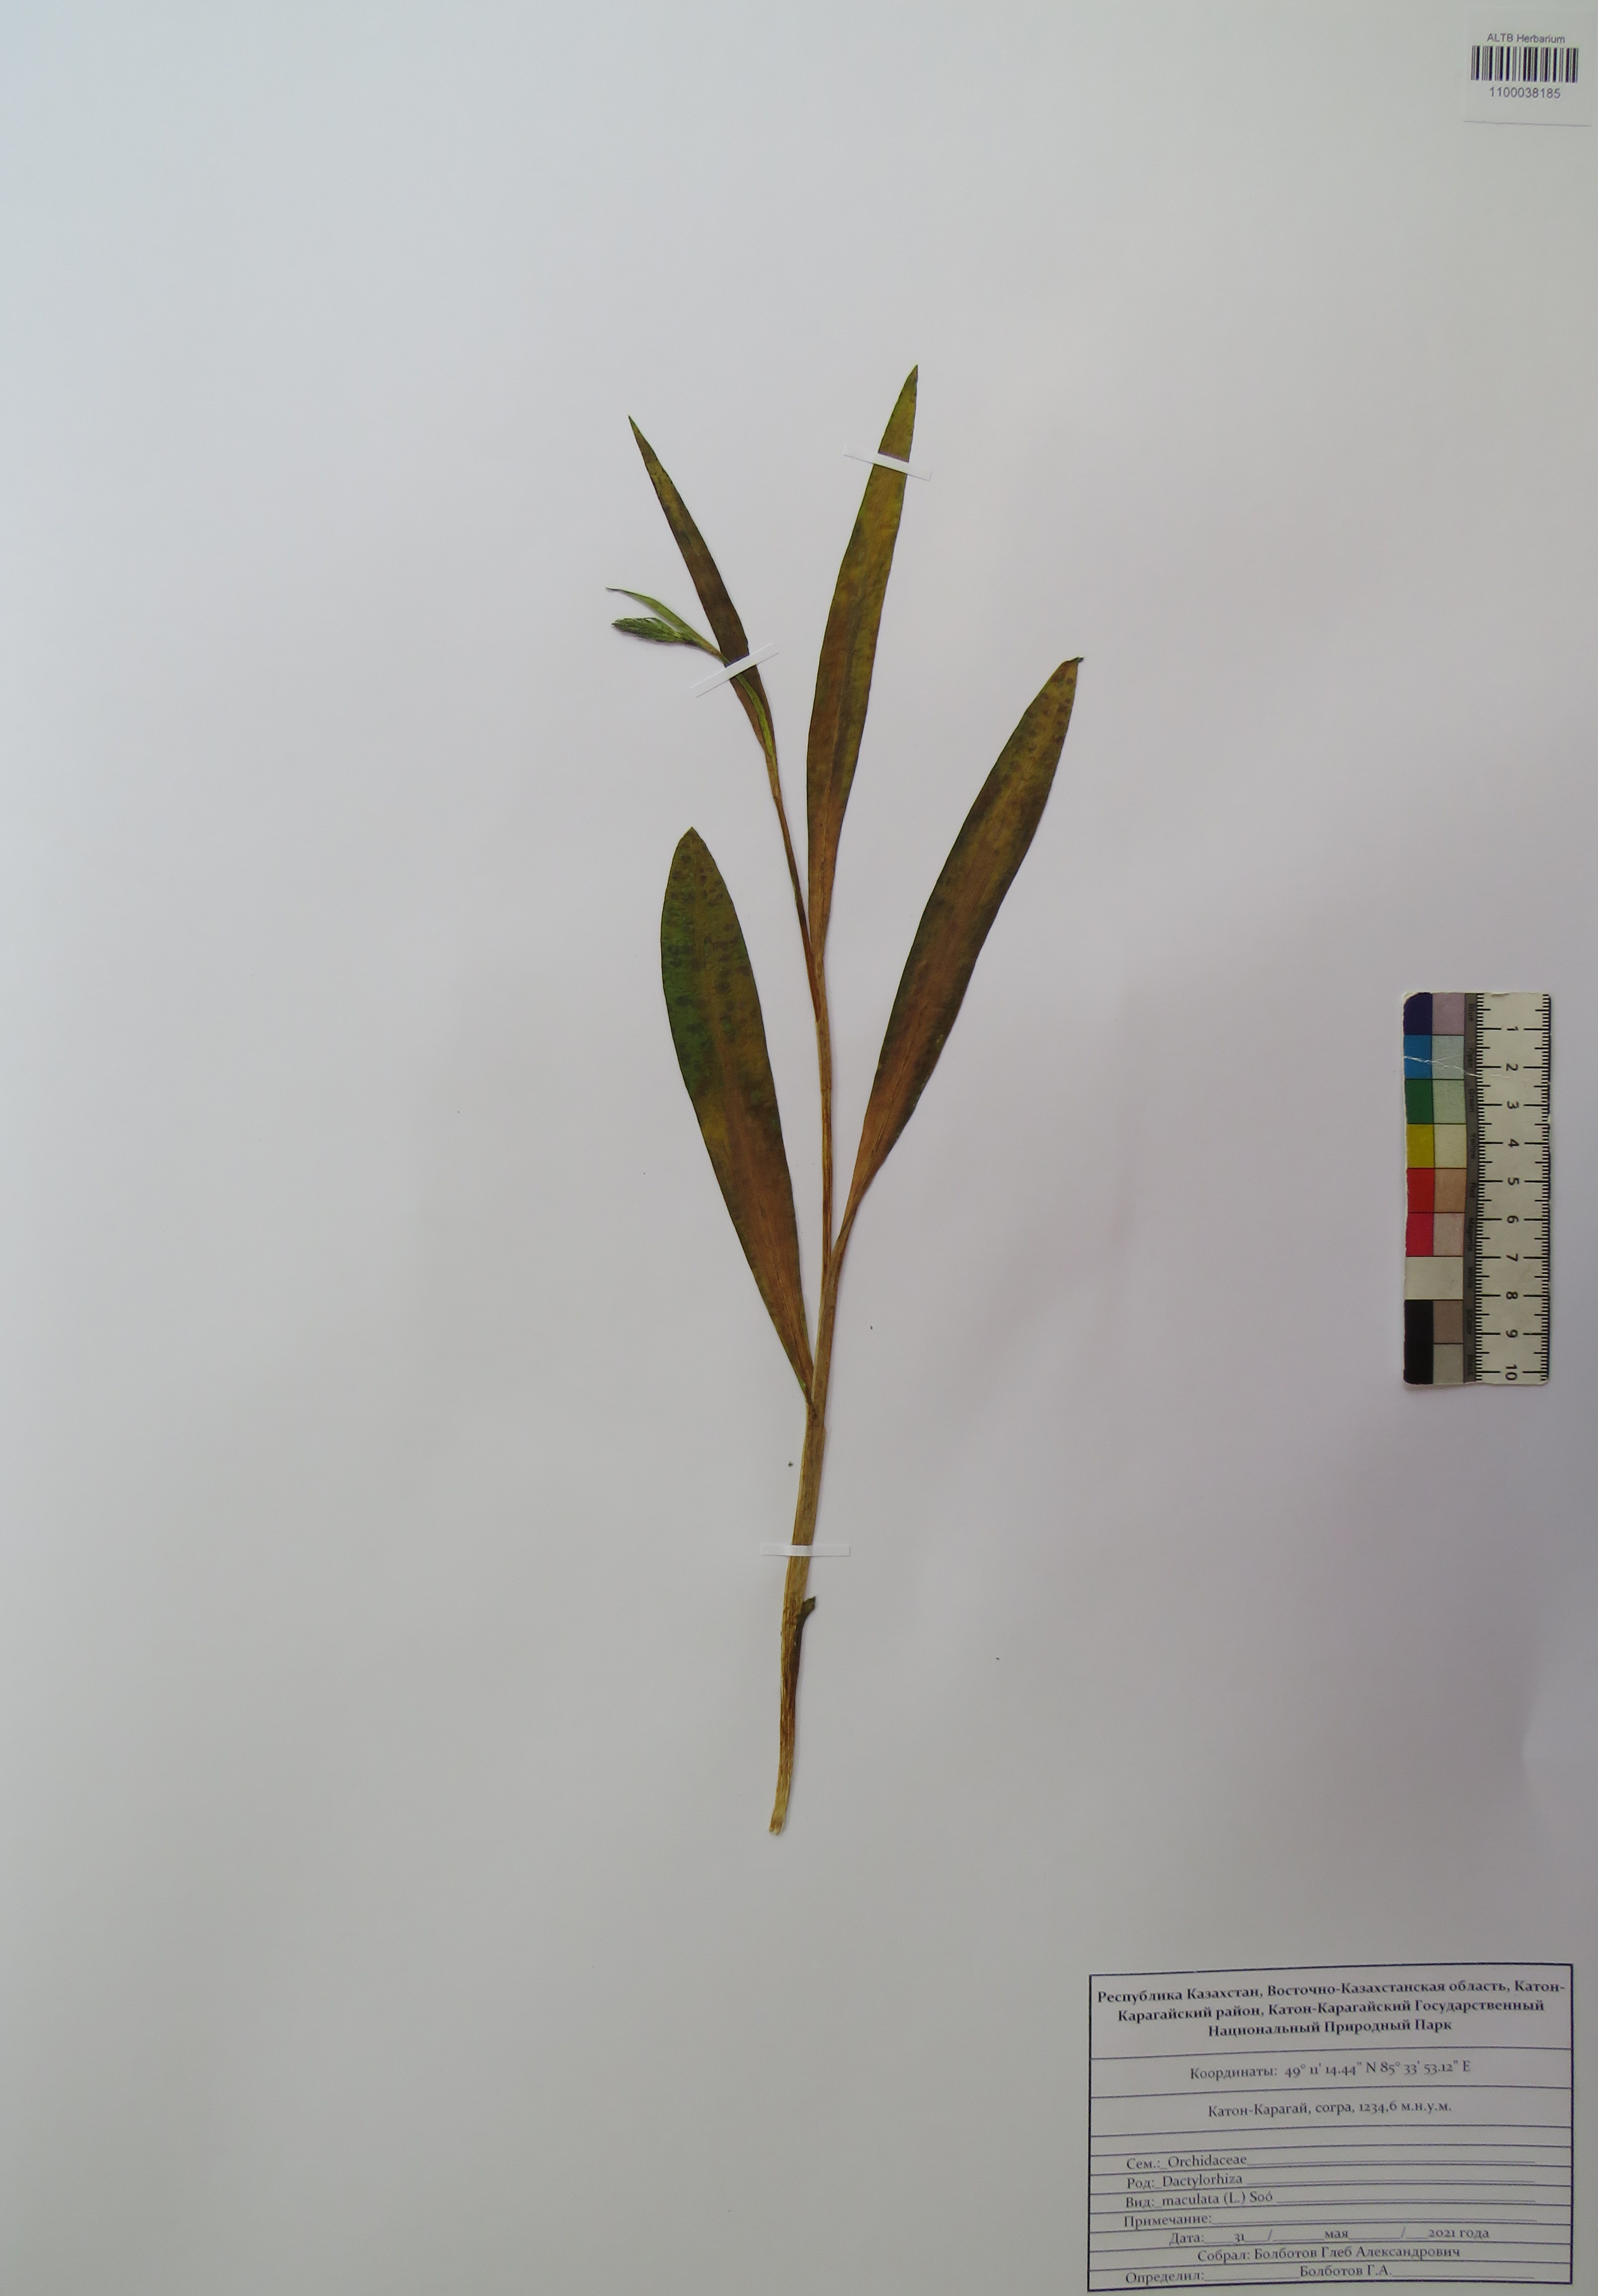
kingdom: Plantae
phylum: Tracheophyta
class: Liliopsida
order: Asparagales
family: Orchidaceae
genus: Dactylorhiza
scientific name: Dactylorhiza maculata
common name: Heath spotted-orchid
